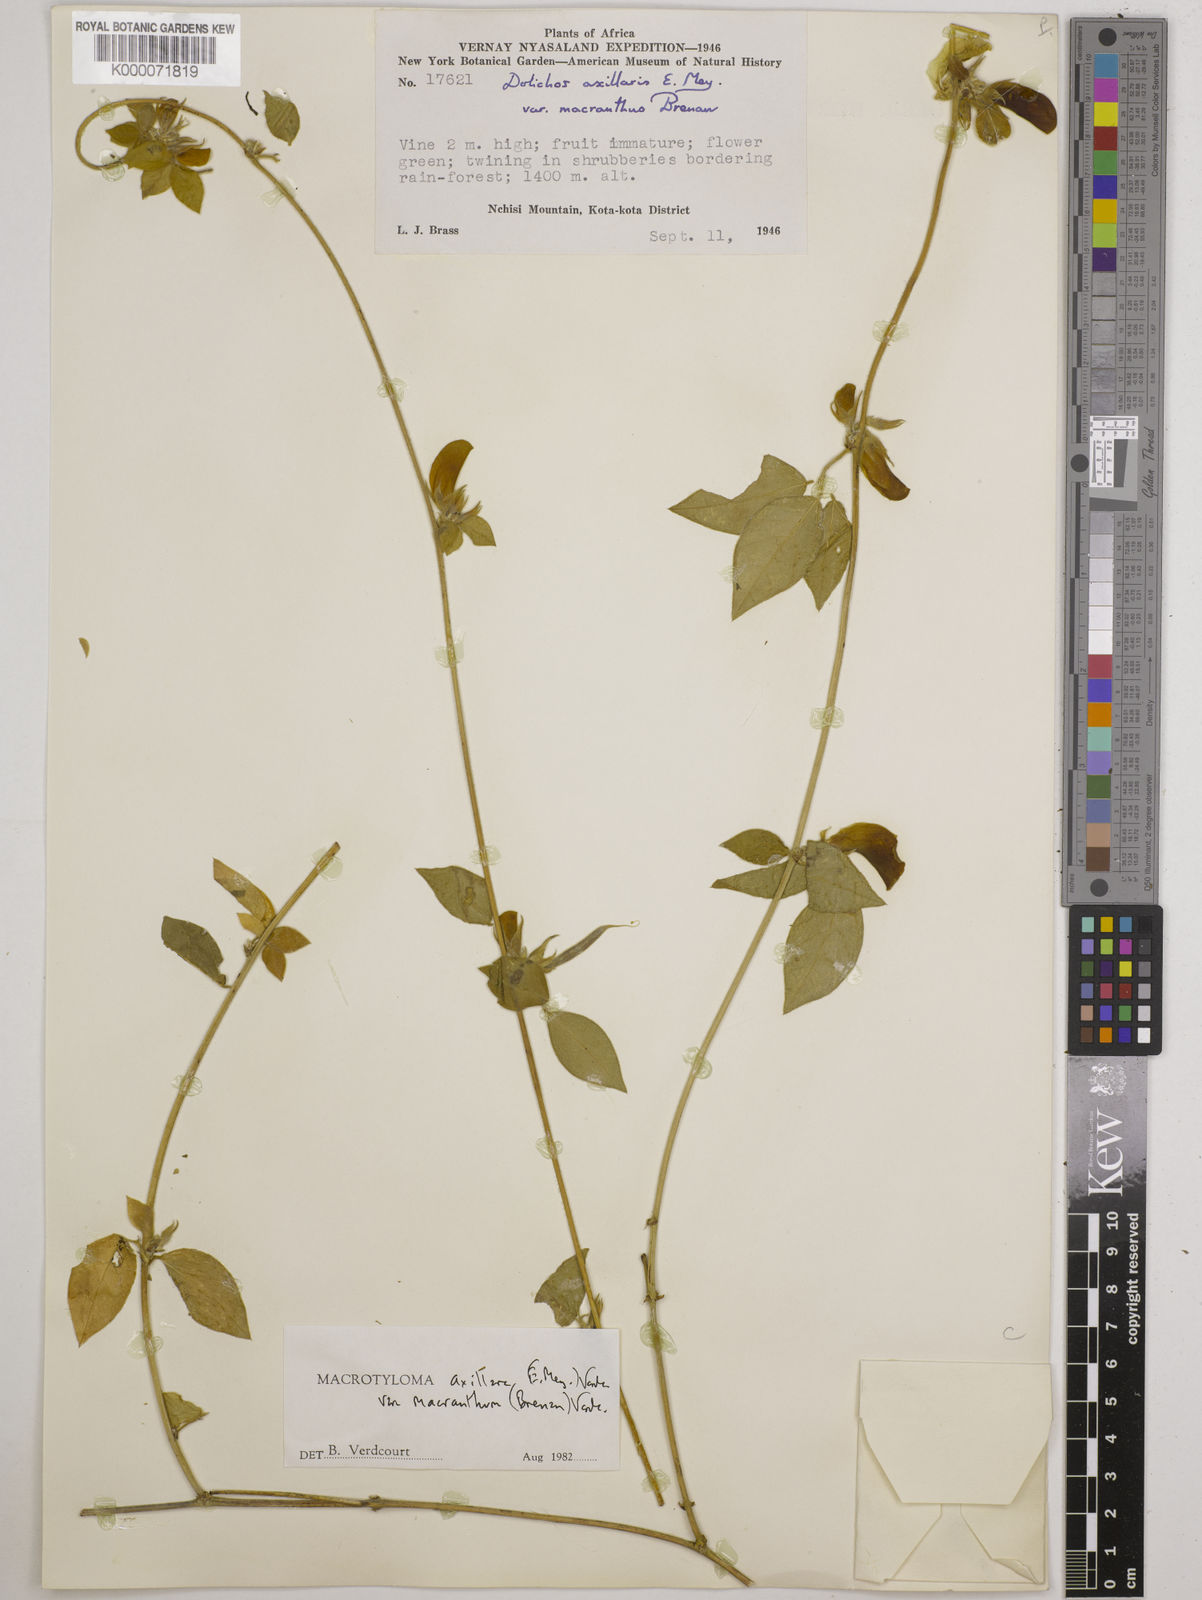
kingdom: Plantae
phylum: Tracheophyta
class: Magnoliopsida
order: Fabales
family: Fabaceae
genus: Macrotyloma
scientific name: Macrotyloma axillare
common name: Perennial horsegram
